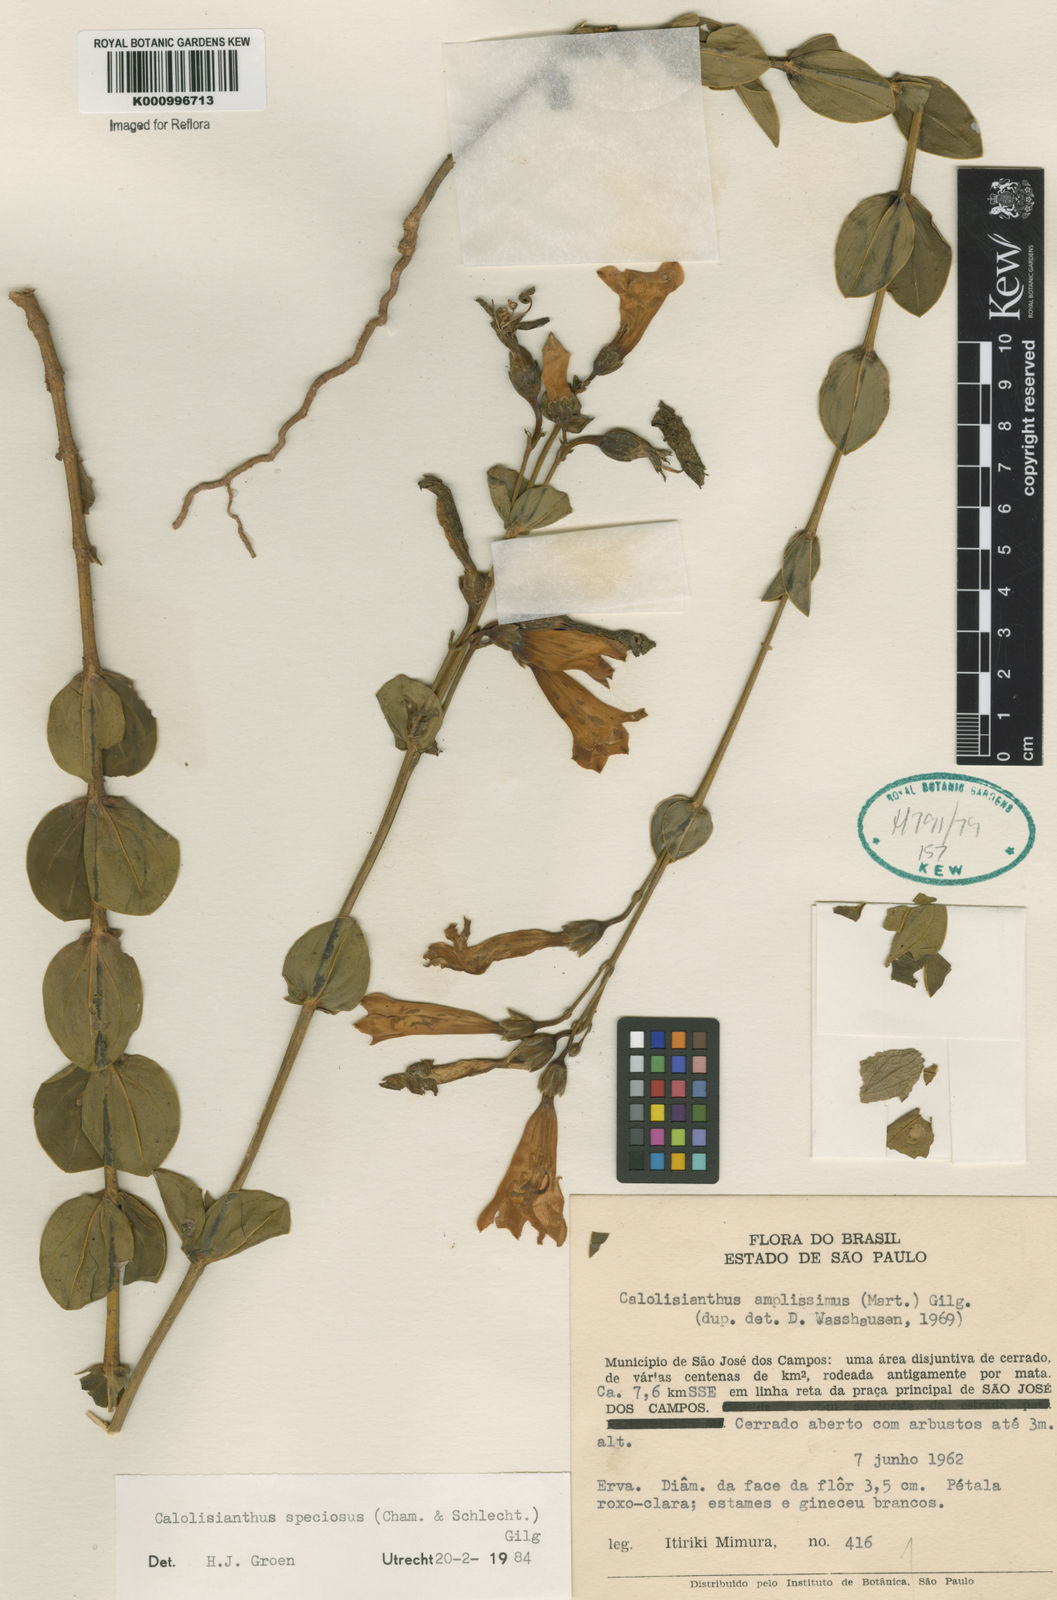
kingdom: Plantae
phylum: Tracheophyta
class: Magnoliopsida
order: Gentianales
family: Gentianaceae
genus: Calolisianthus
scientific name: Calolisianthus speciosus
